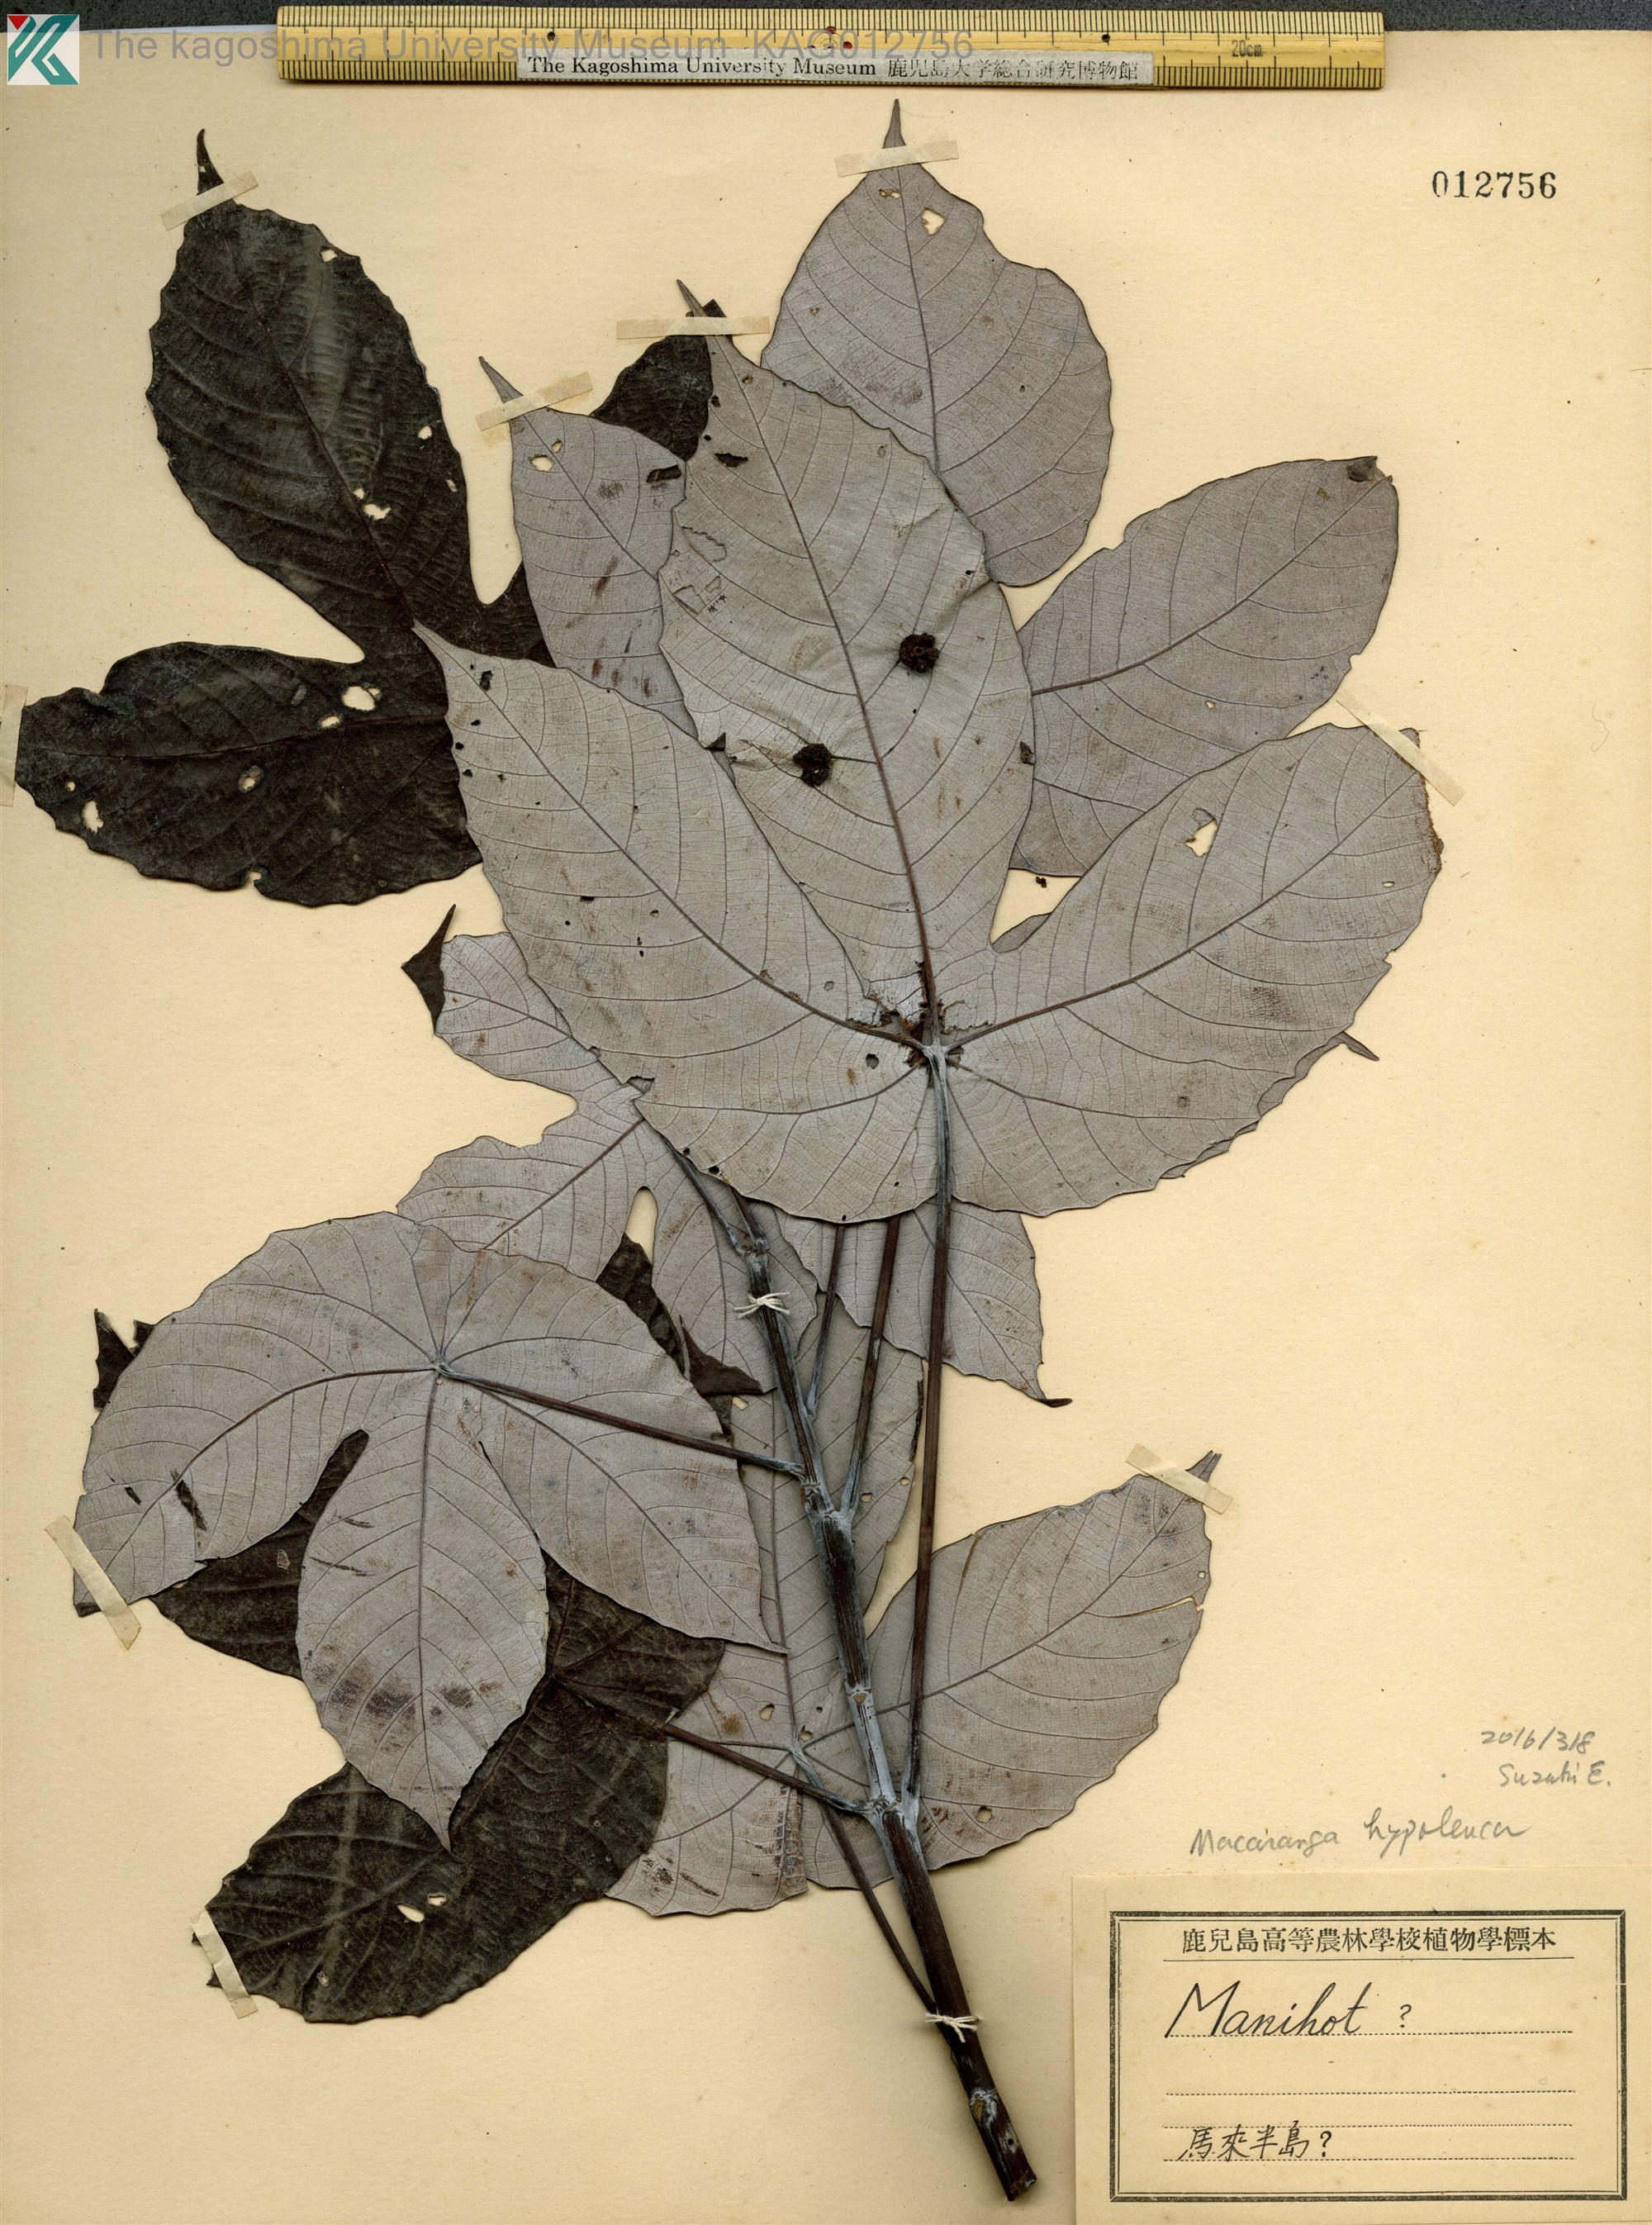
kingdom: Plantae
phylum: Tracheophyta
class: Magnoliopsida
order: Malpighiales
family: Euphorbiaceae
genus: Macaranga
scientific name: Macaranga hypoleuca
